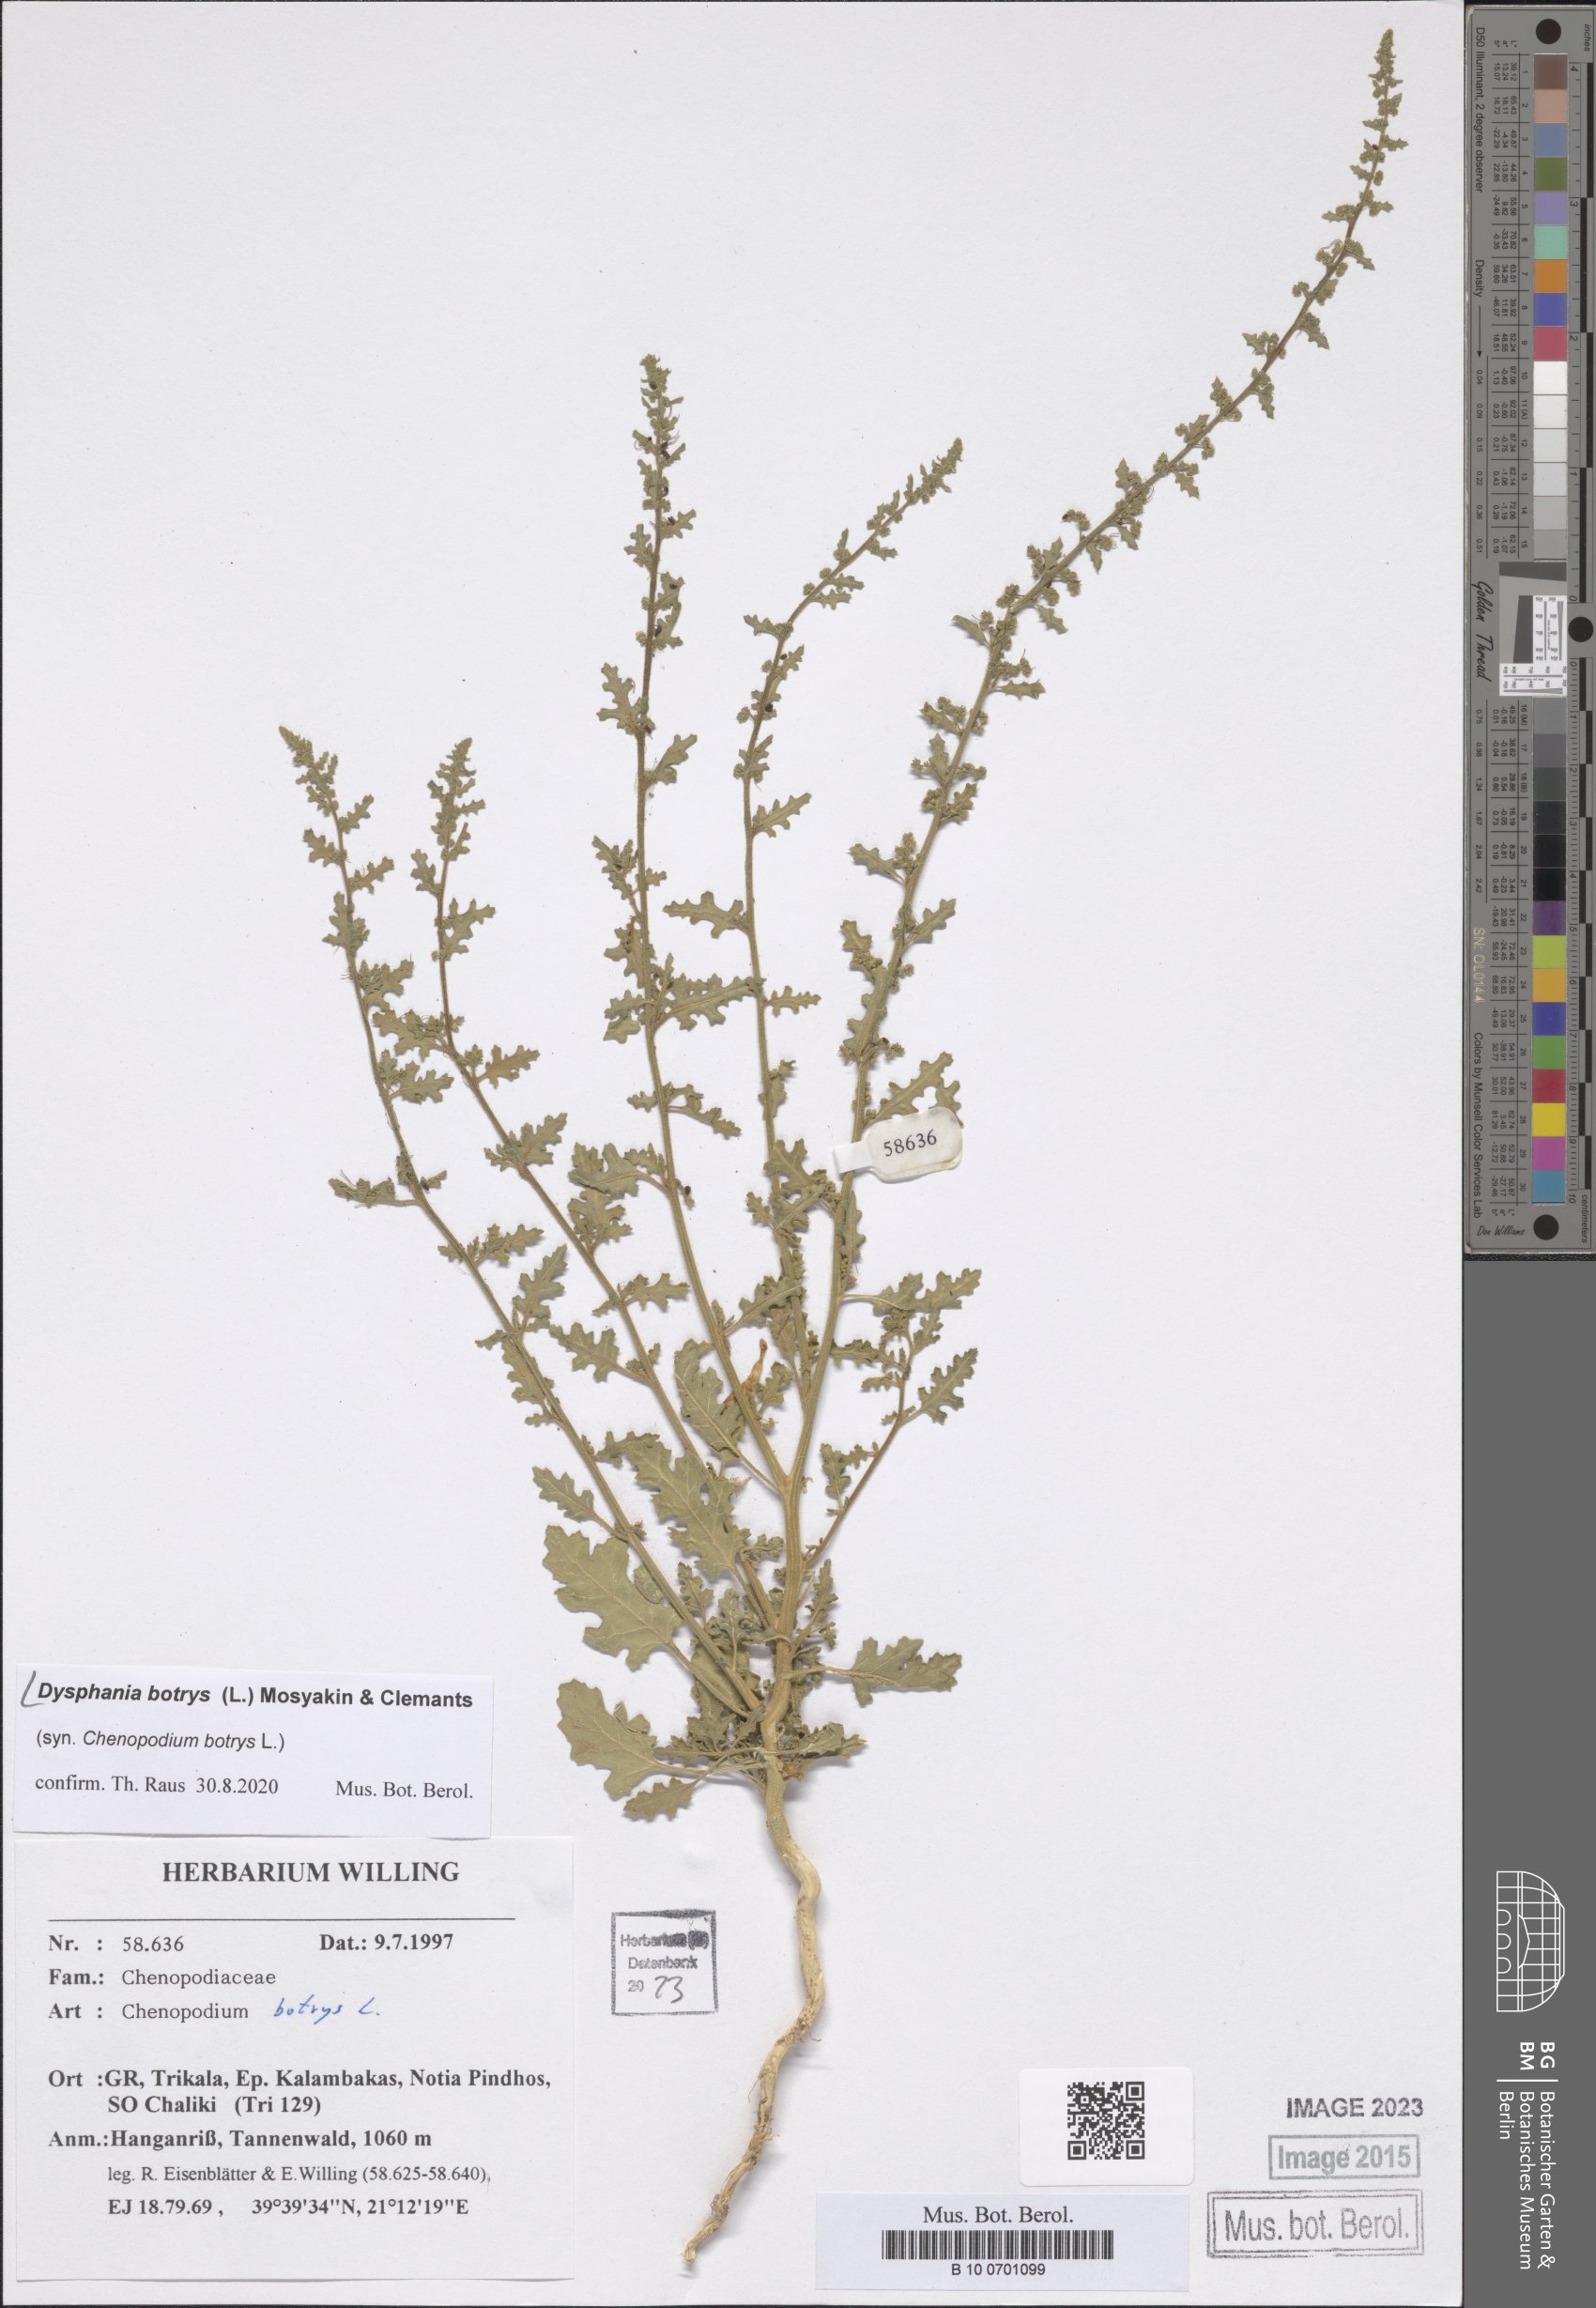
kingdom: Plantae
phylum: Tracheophyta
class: Magnoliopsida
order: Caryophyllales
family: Amaranthaceae
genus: Dysphania
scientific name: Dysphania botrys
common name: Feather-geranium
